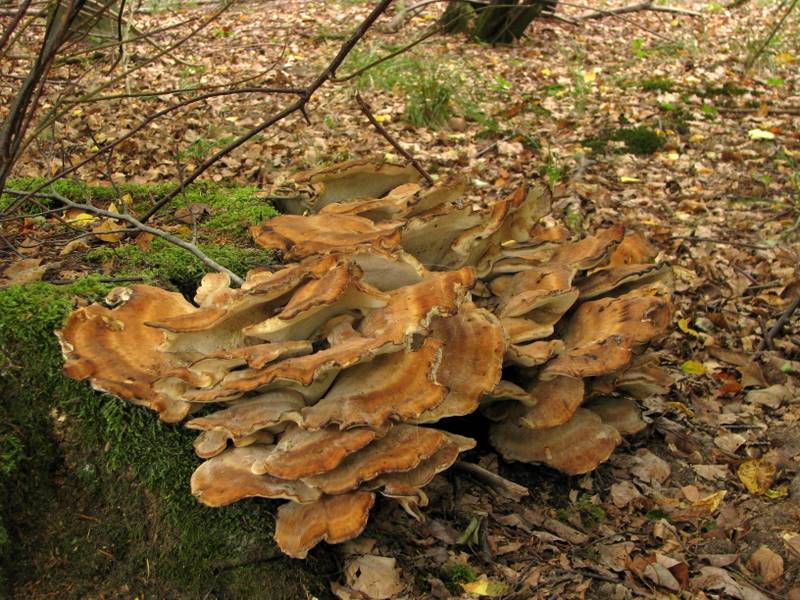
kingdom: Fungi
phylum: Basidiomycota
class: Agaricomycetes
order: Polyporales
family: Meripilaceae
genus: Meripilus
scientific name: Meripilus giganteus
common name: kæmpeporesvamp
